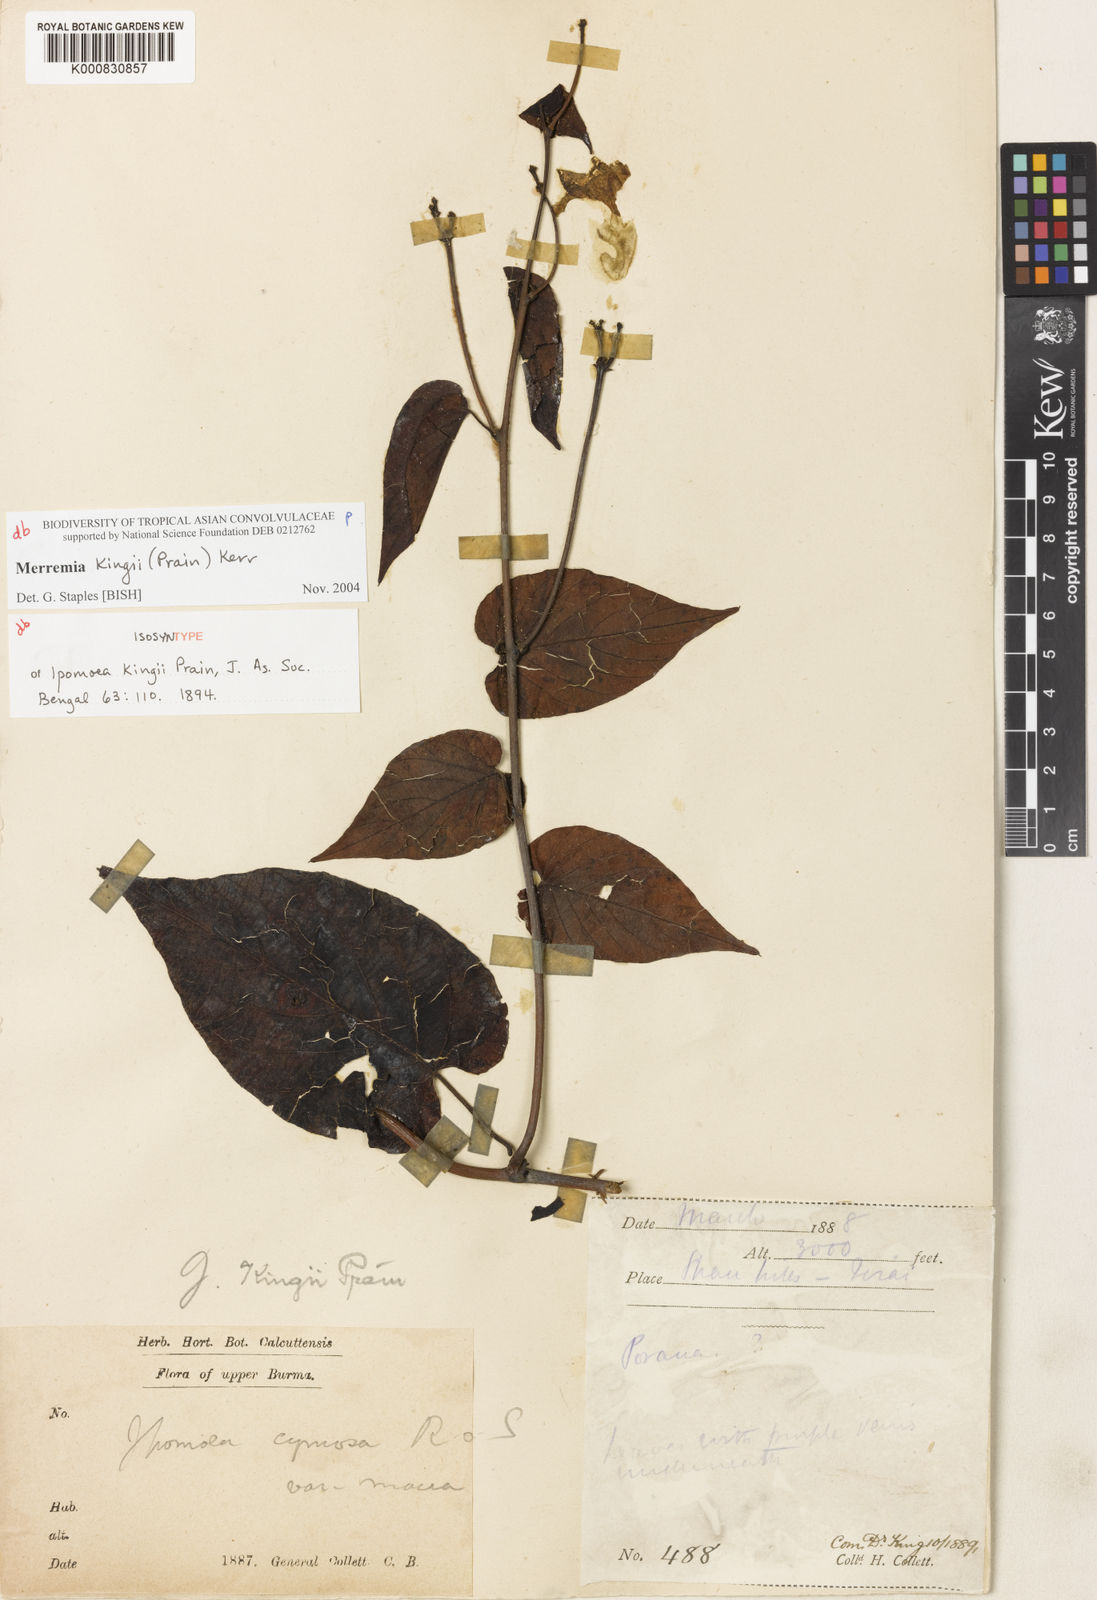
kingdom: Plantae
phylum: Tracheophyta
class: Magnoliopsida
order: Solanales
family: Convolvulaceae
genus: Camonea
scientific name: Camonea
